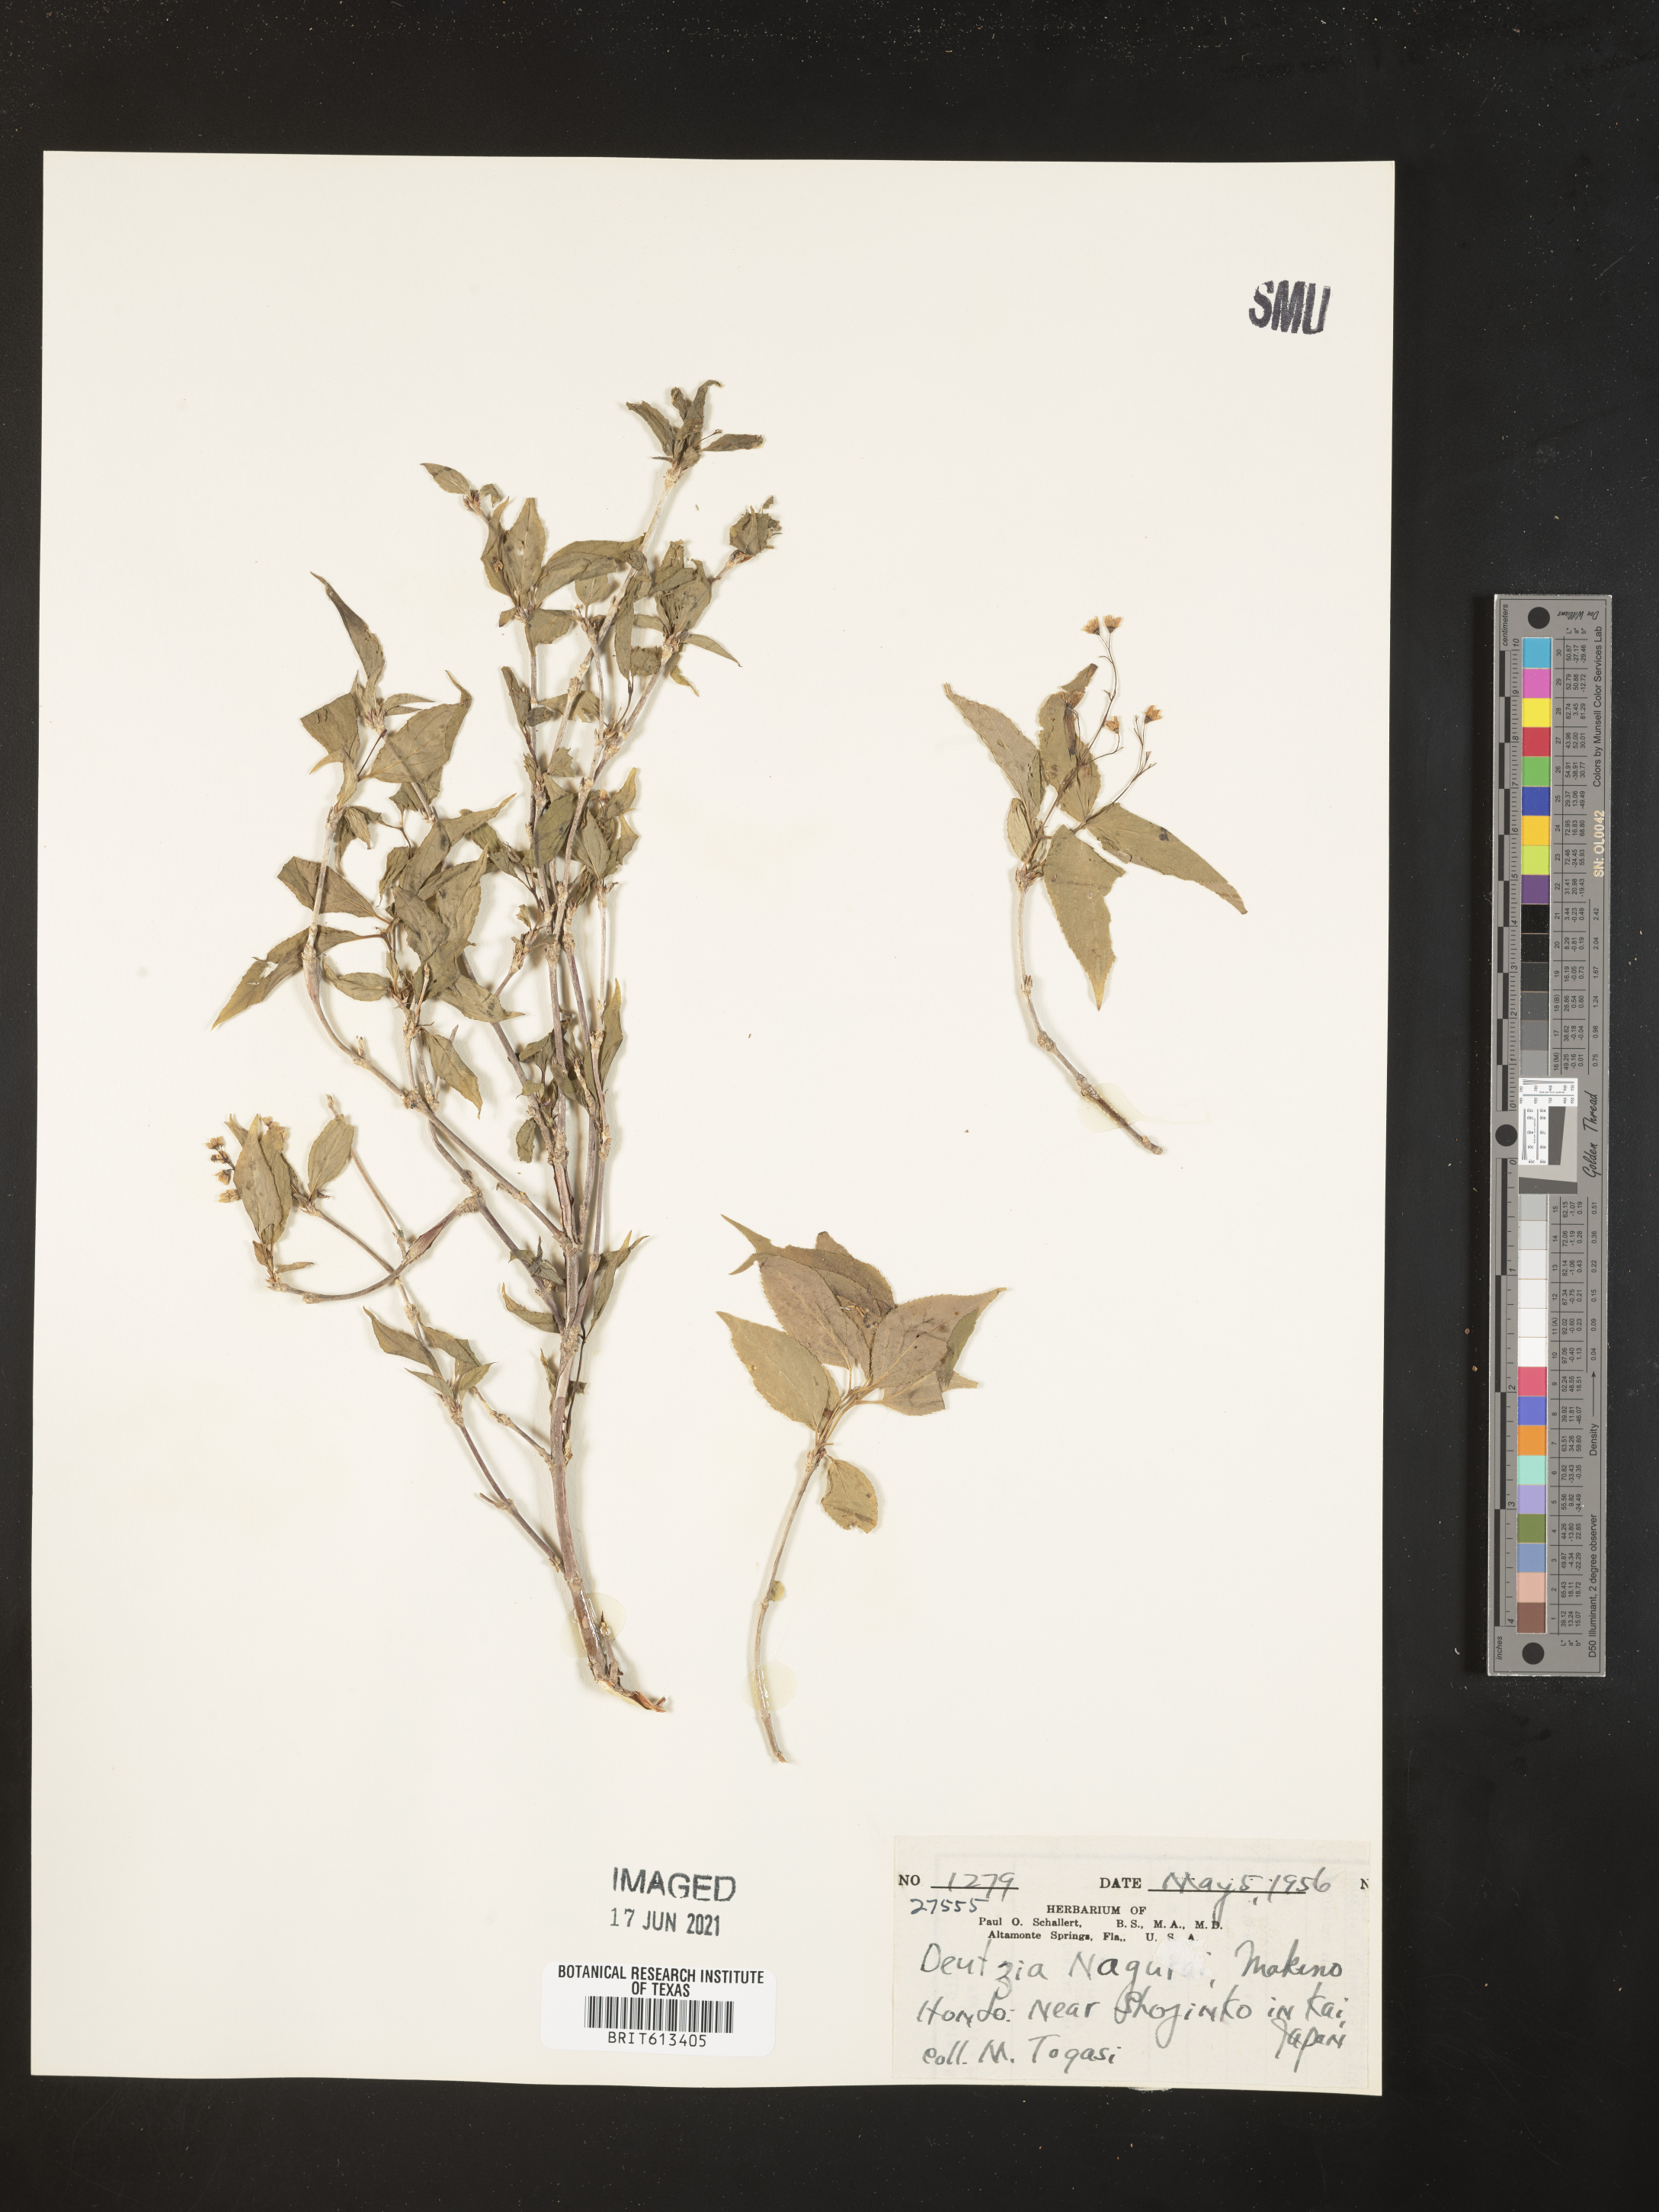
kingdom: Plantae
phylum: Tracheophyta
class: Magnoliopsida
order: Cornales
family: Hydrangeaceae
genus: Deutzia
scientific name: Deutzia gracilis
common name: Slender pride of rochester
